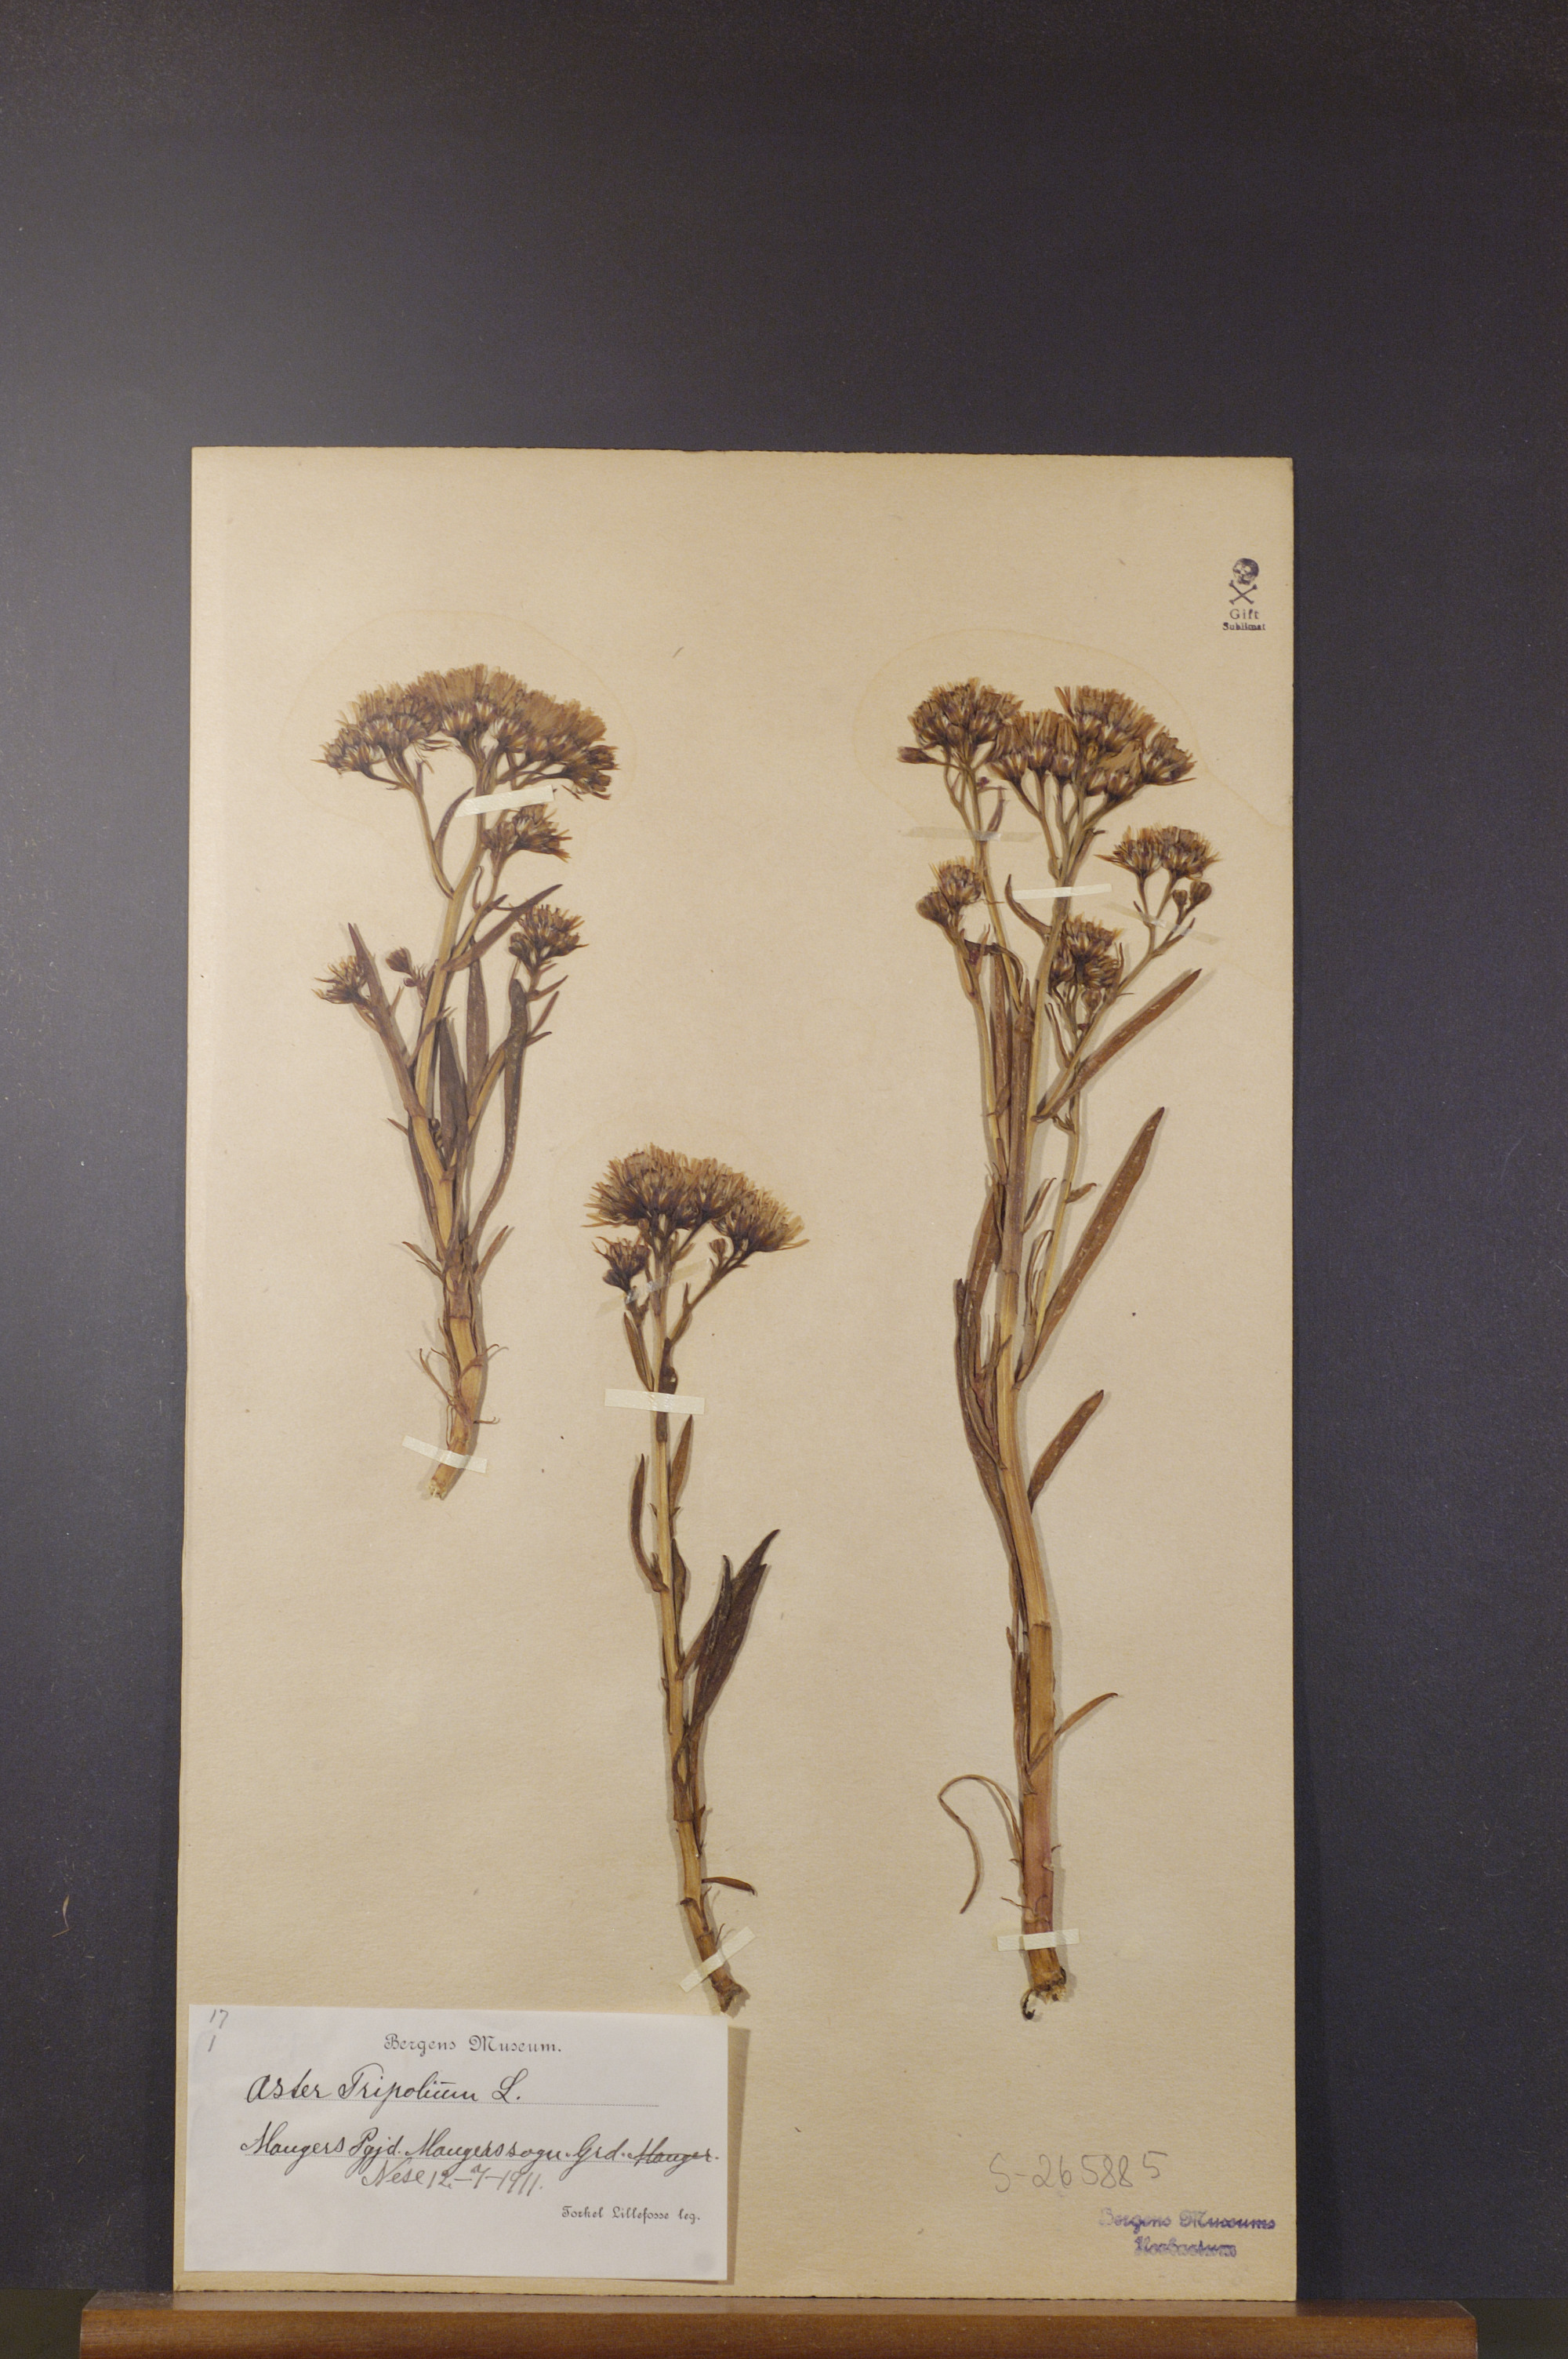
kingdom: Plantae
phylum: Tracheophyta
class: Magnoliopsida
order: Asterales
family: Asteraceae
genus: Tripolium
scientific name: Tripolium pannonicum
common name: Sea aster
